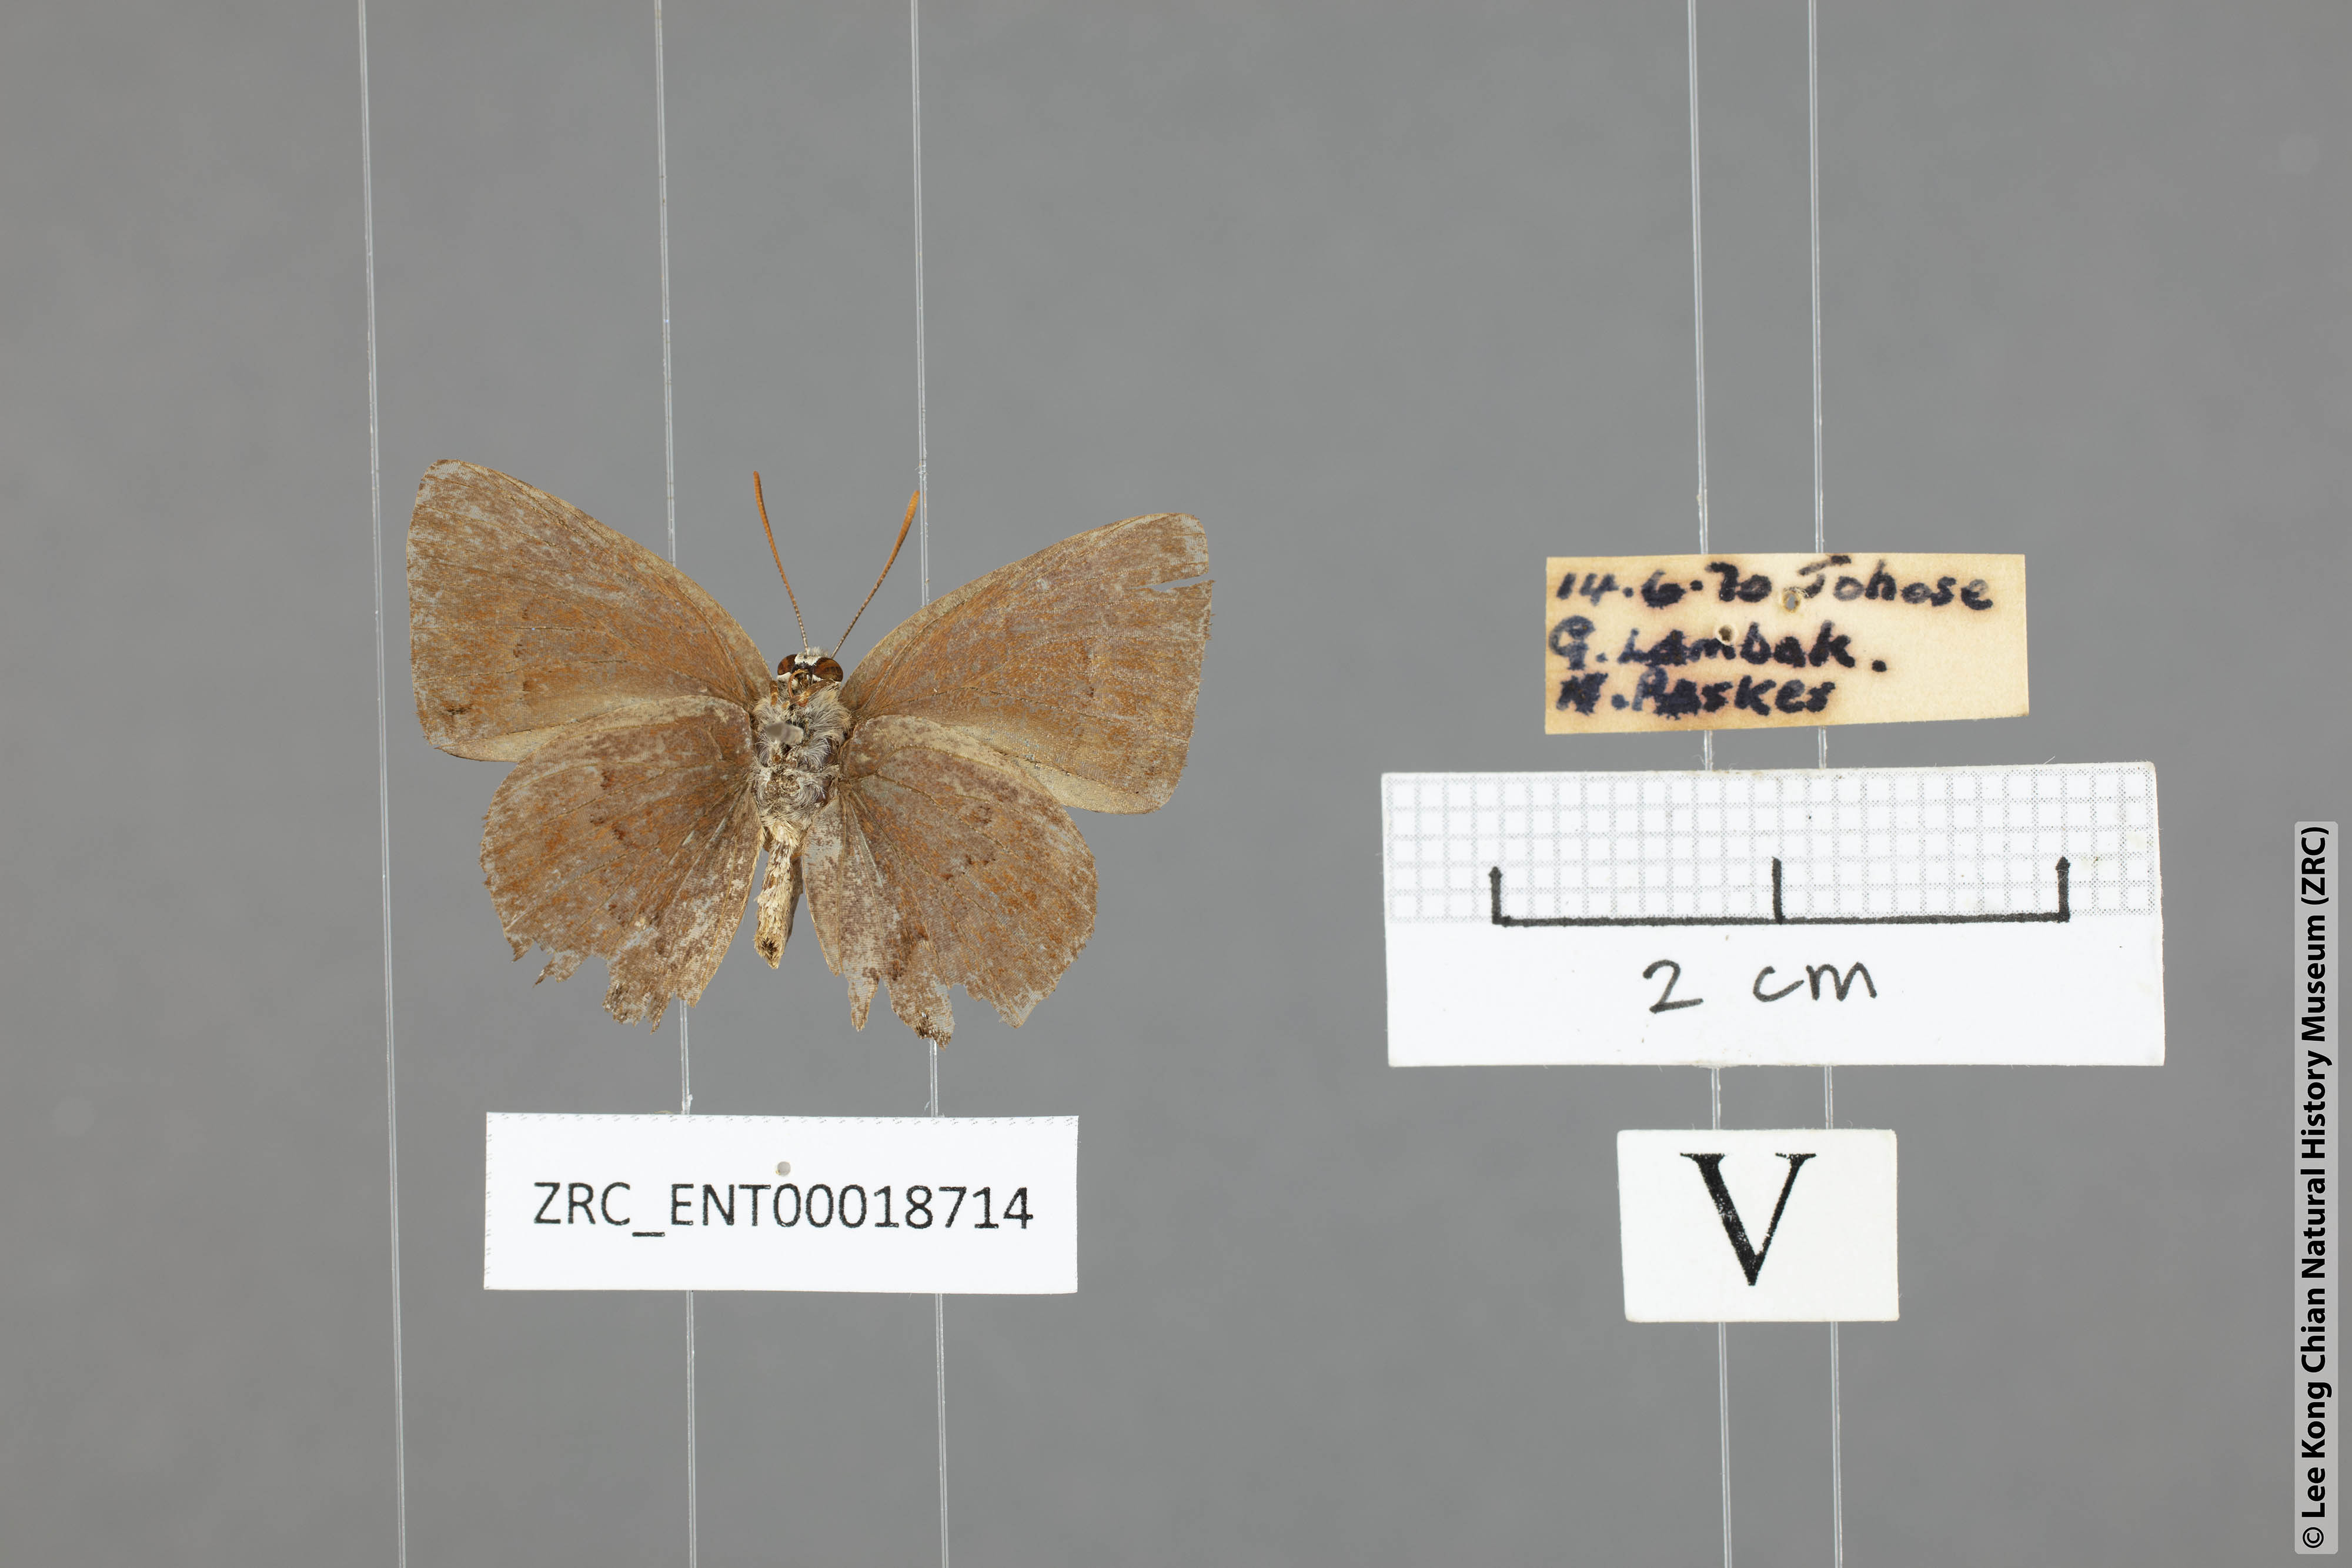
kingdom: Animalia
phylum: Arthropoda
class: Insecta
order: Lepidoptera
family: Lycaenidae
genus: Deramas
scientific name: Deramas jasodai
